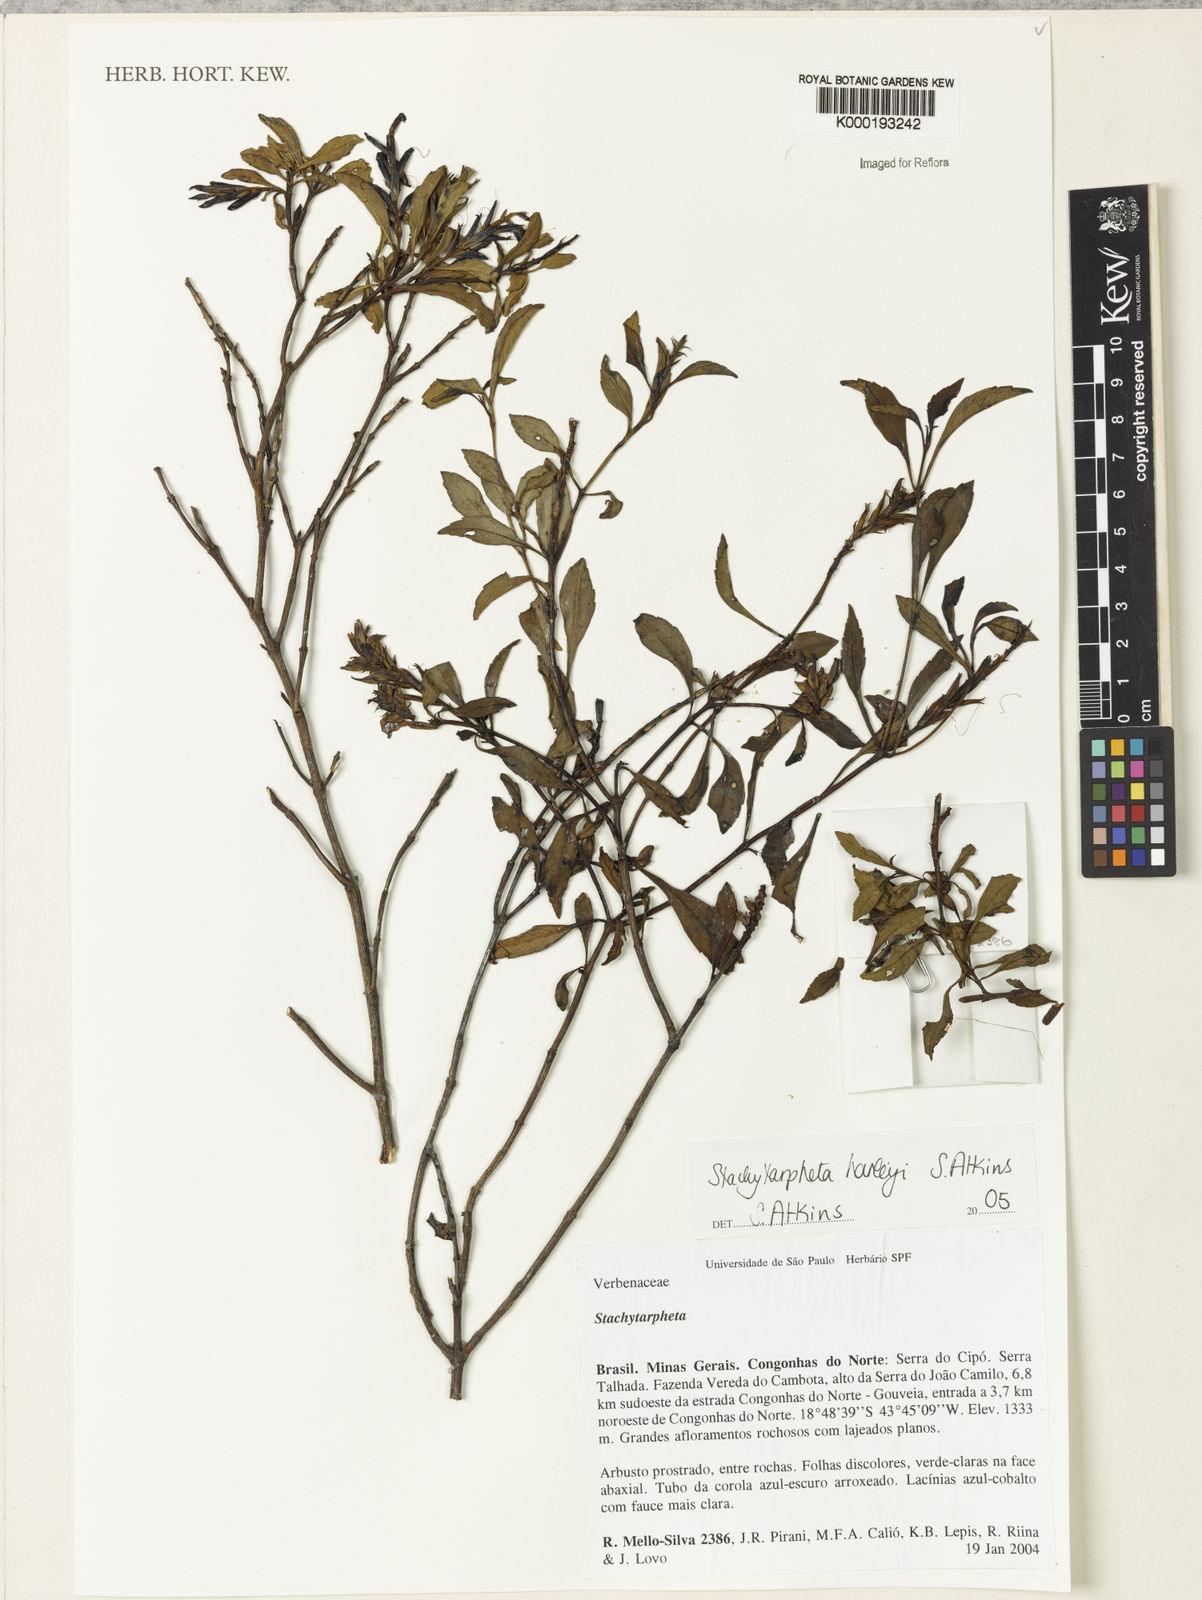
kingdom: Plantae
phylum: Tracheophyta
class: Magnoliopsida
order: Lamiales
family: Verbenaceae
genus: Stachytarpheta
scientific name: Stachytarpheta harleyi
